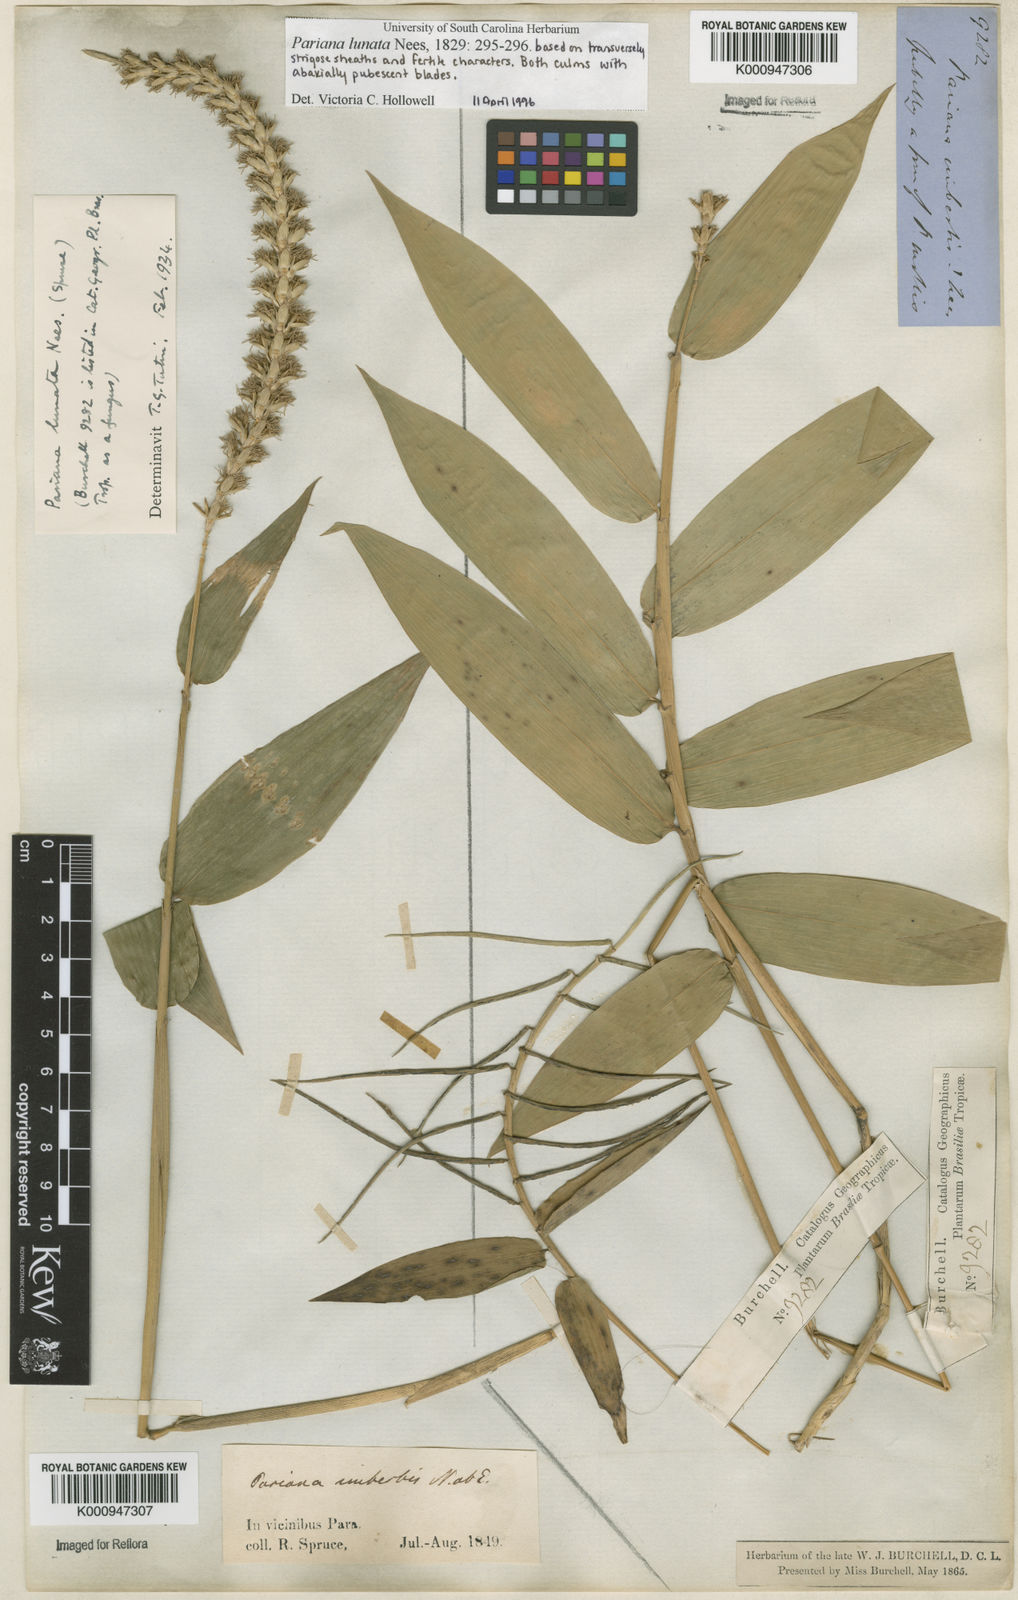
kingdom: Plantae
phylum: Tracheophyta
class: Liliopsida
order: Poales
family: Poaceae
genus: Pariana
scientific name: Pariana lunata
